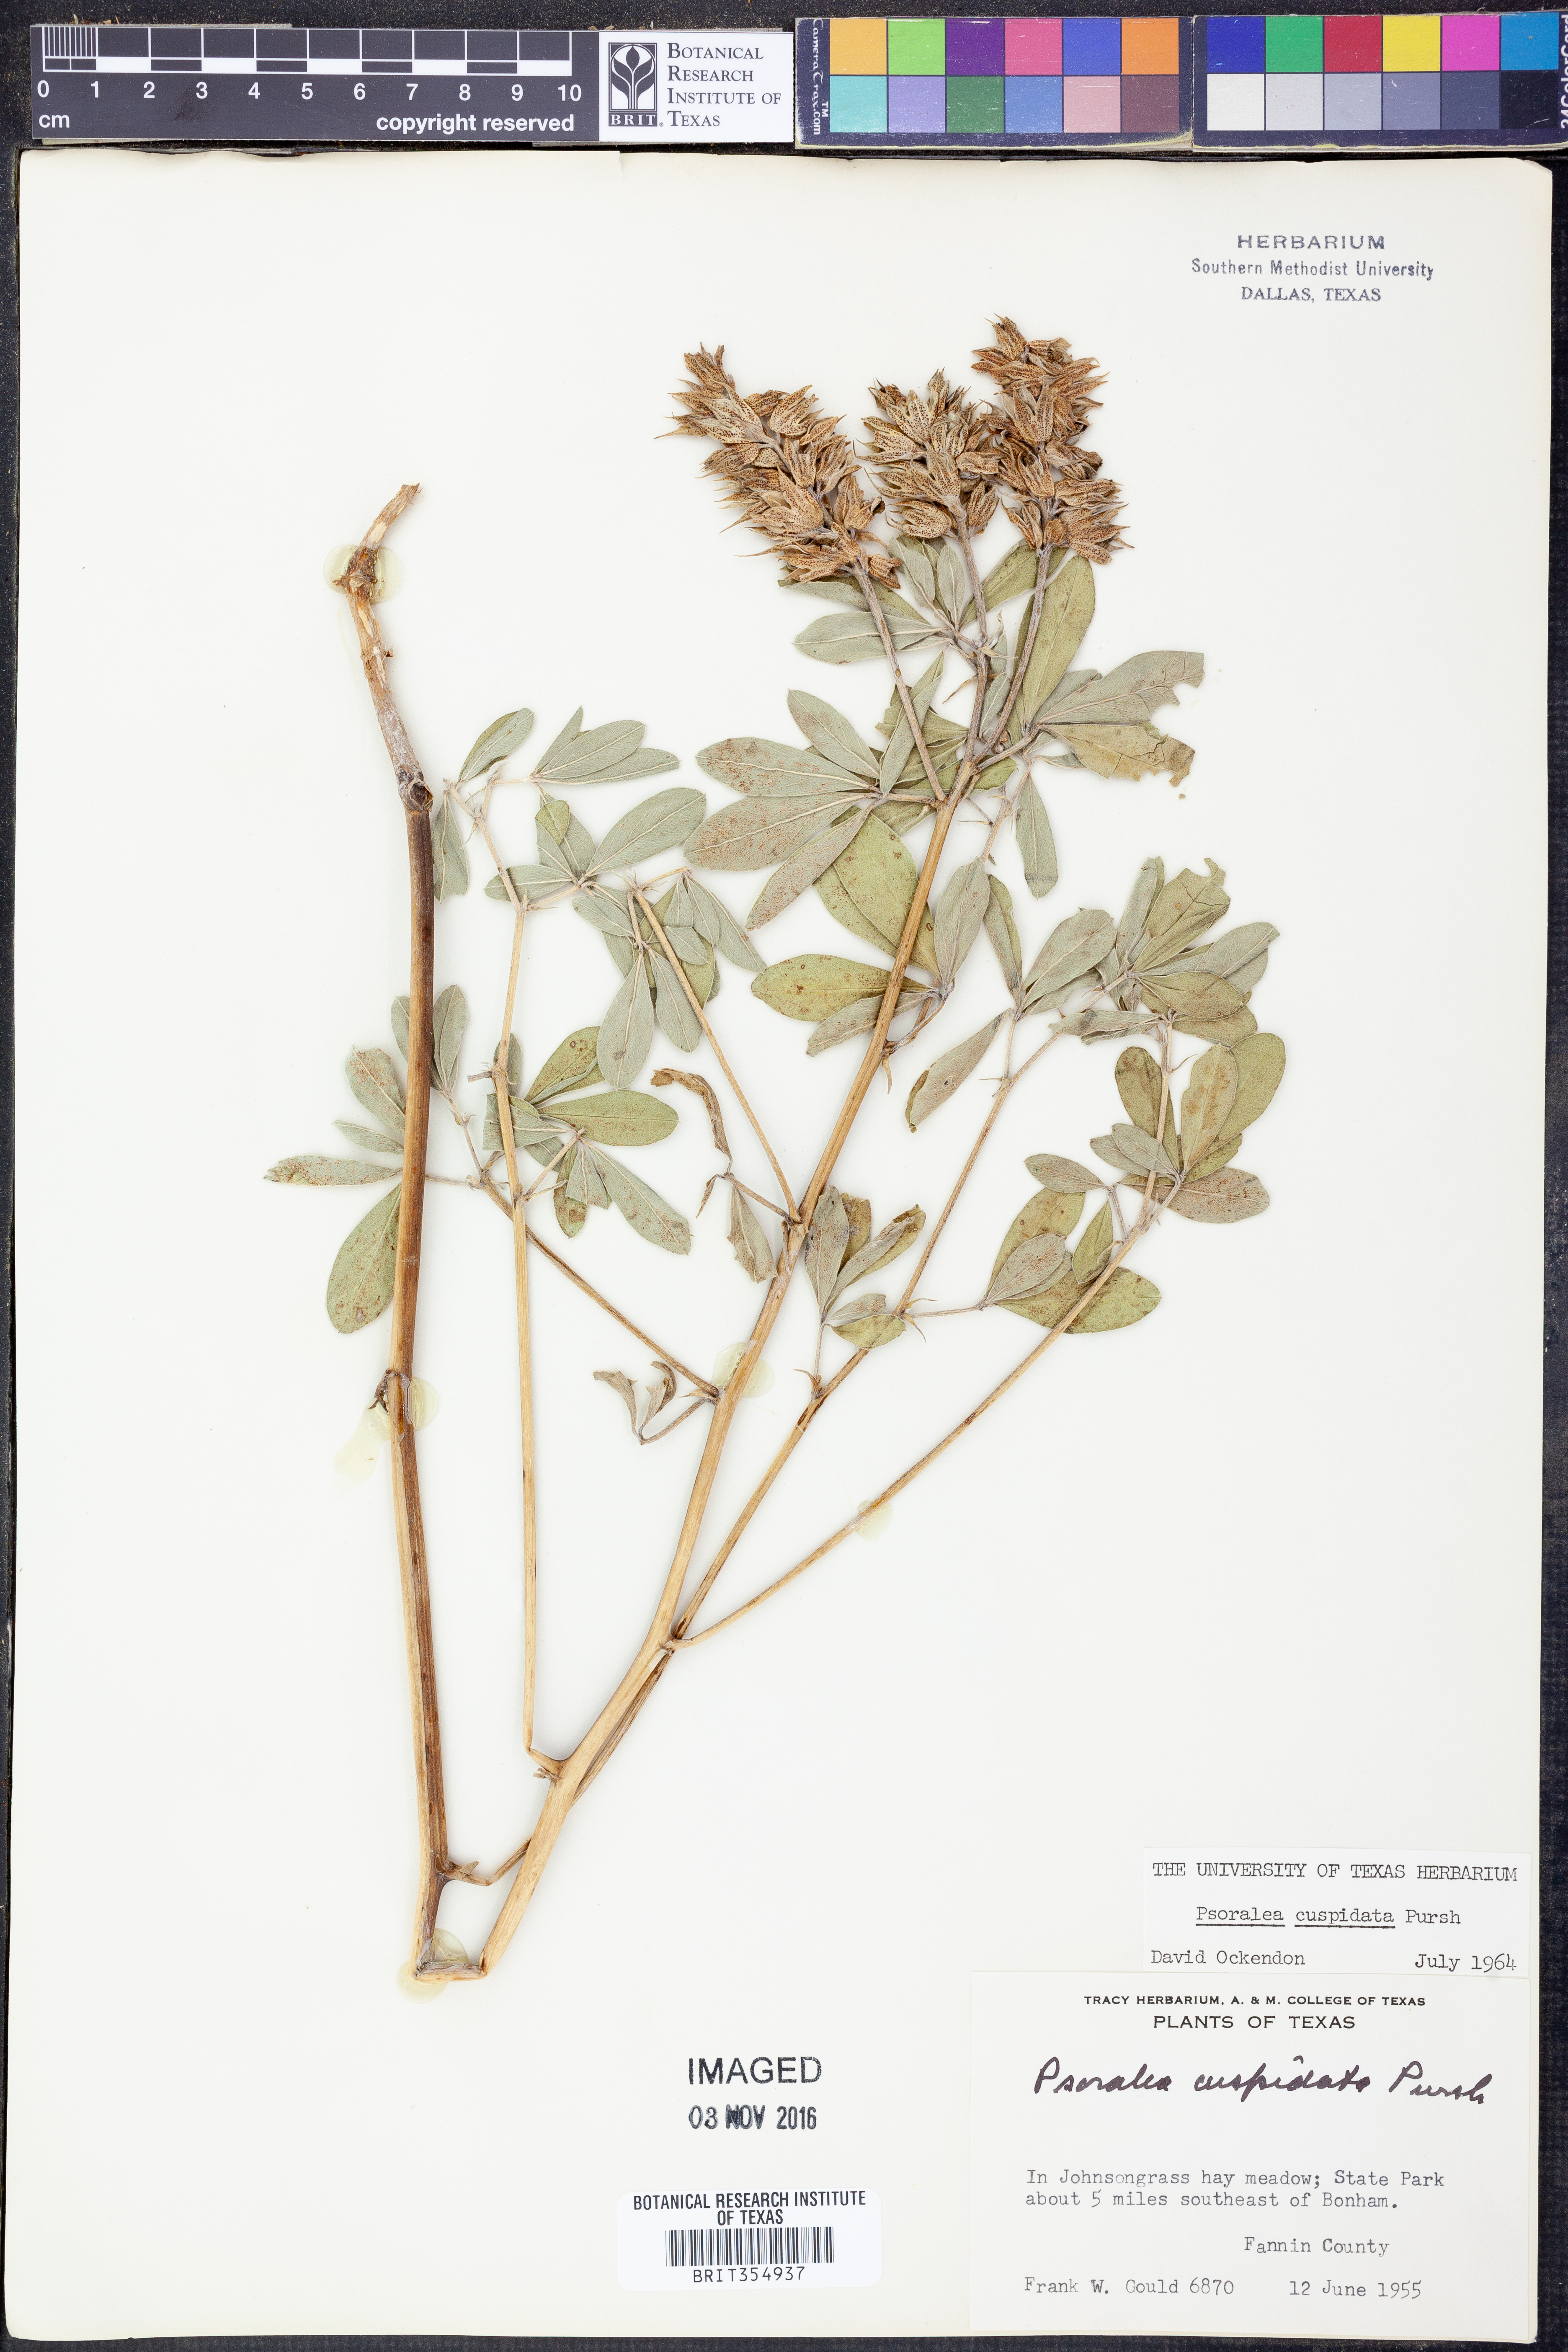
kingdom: Plantae
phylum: Tracheophyta
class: Magnoliopsida
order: Fabales
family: Fabaceae
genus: Pediomelum
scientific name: Pediomelum cuspidatum
